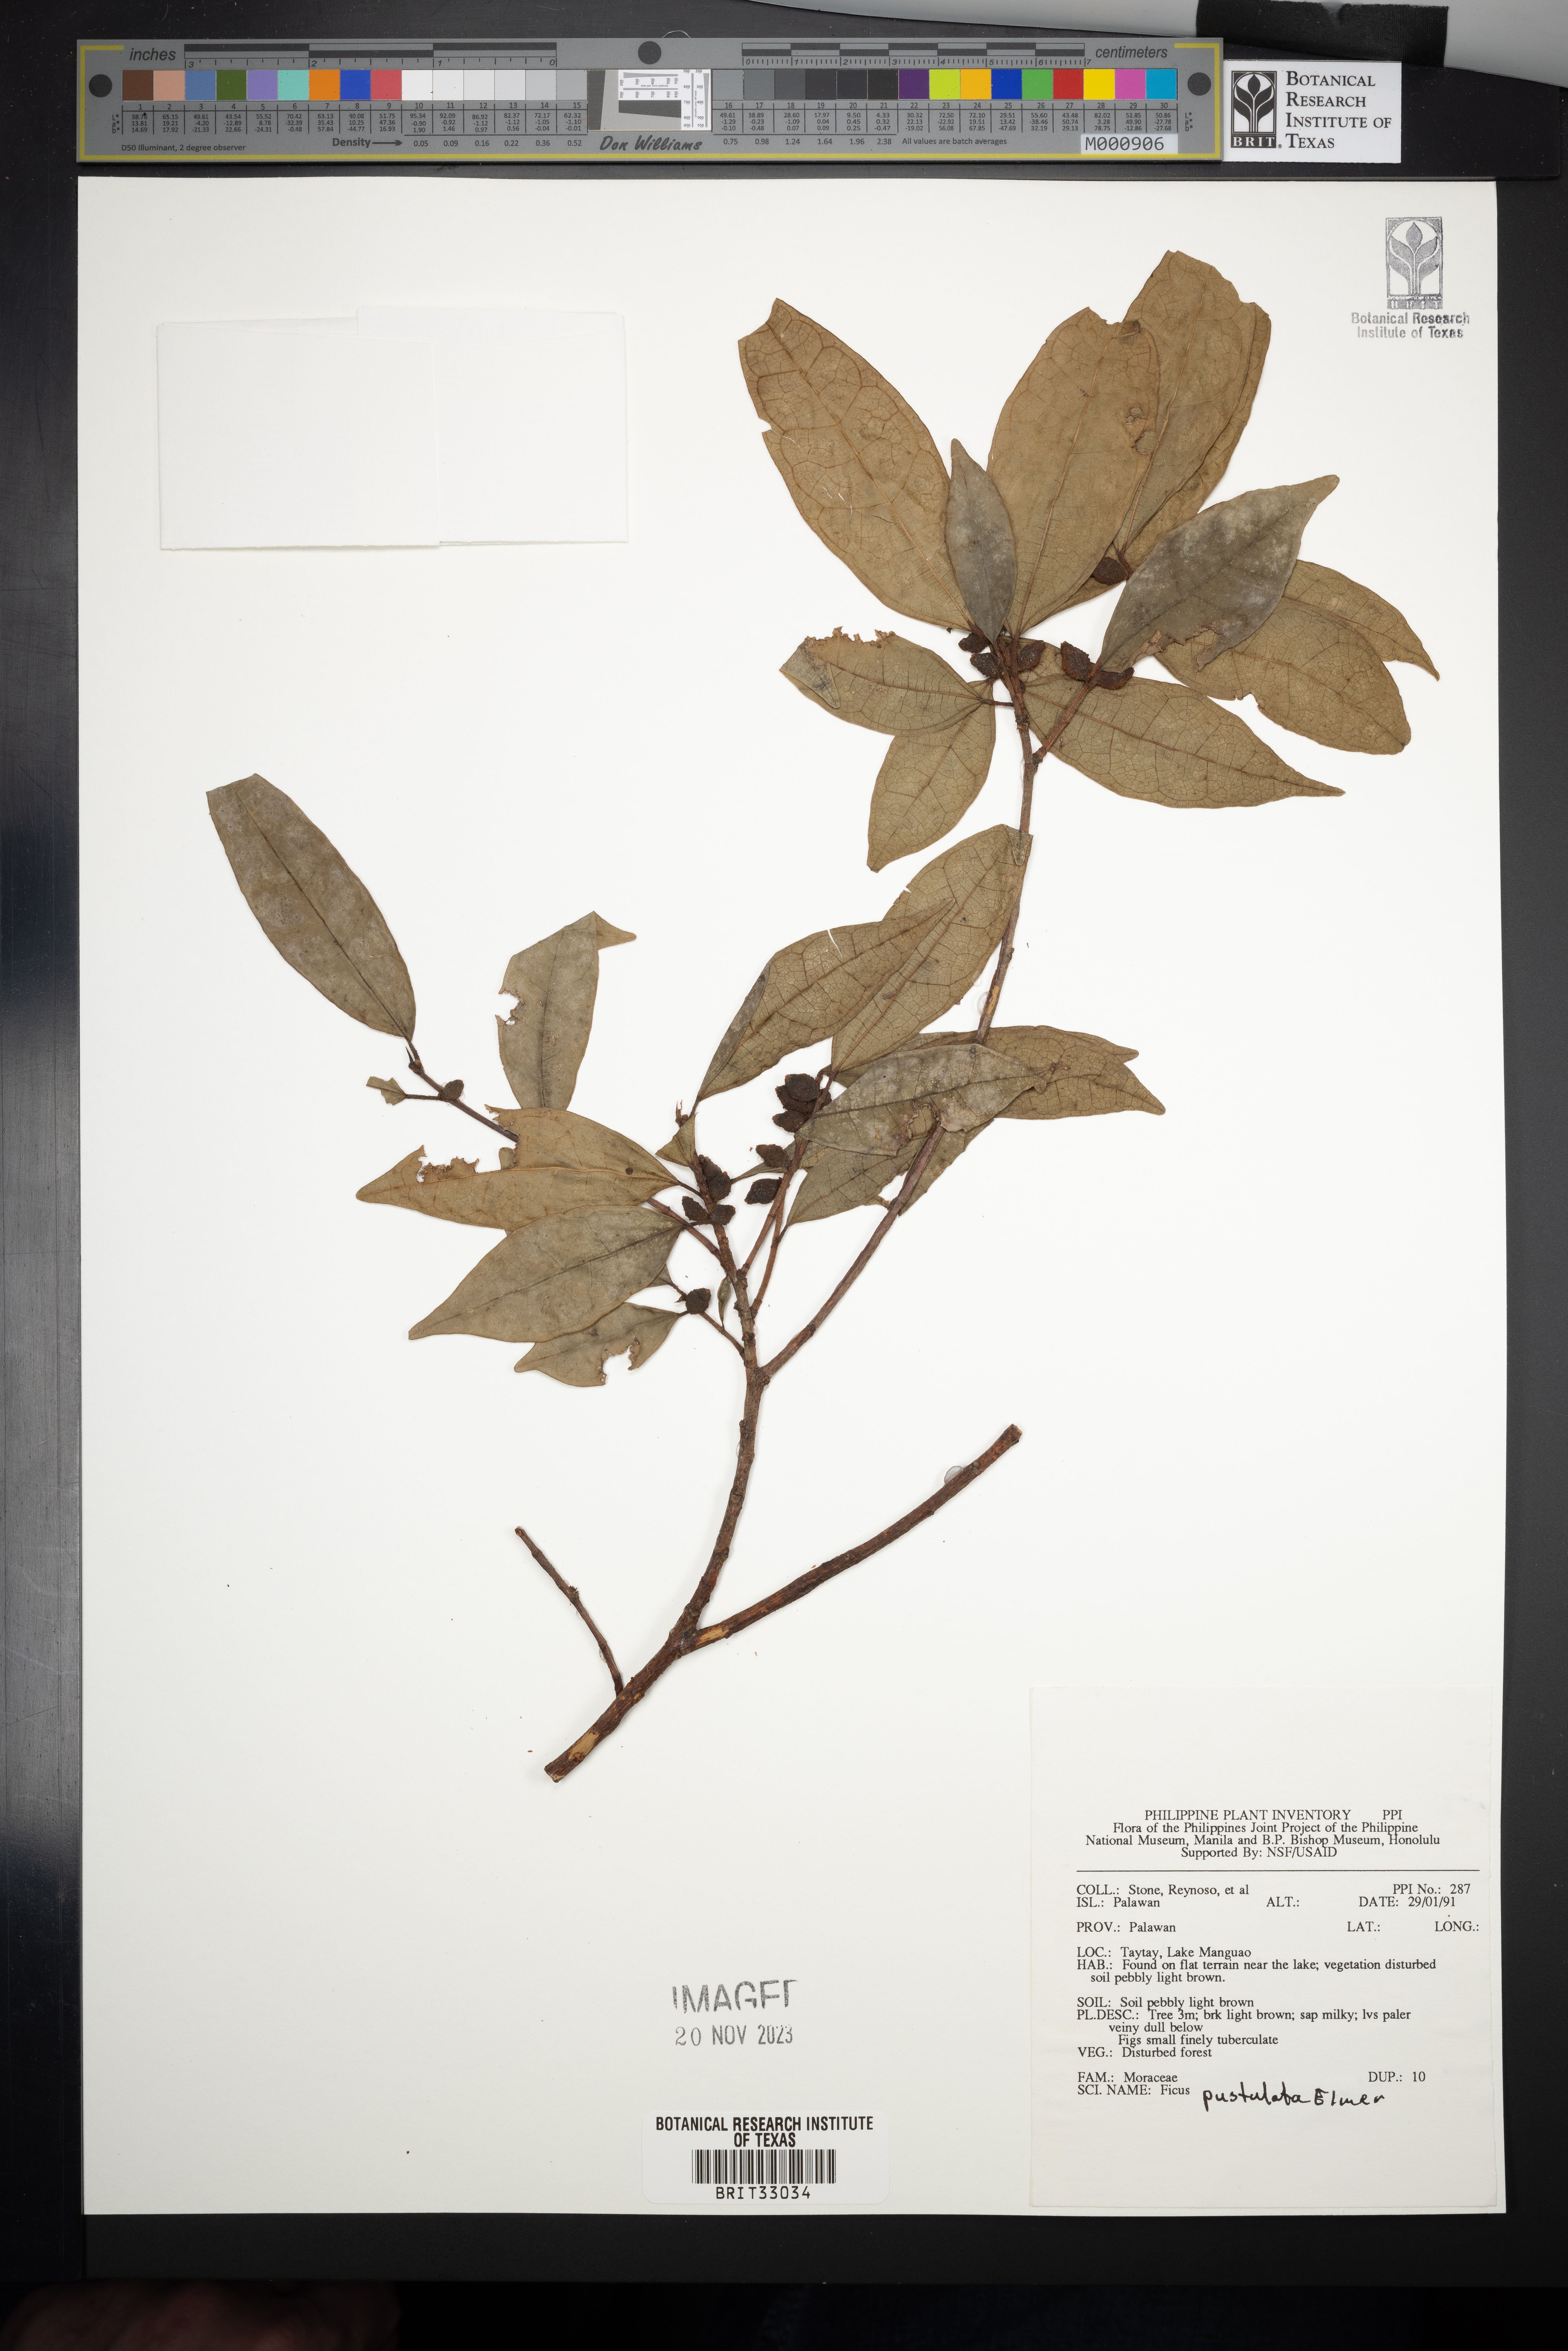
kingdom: Plantae
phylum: Tracheophyta
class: Magnoliopsida
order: Rosales
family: Moraceae
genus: Ficus
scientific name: Ficus pustulata
